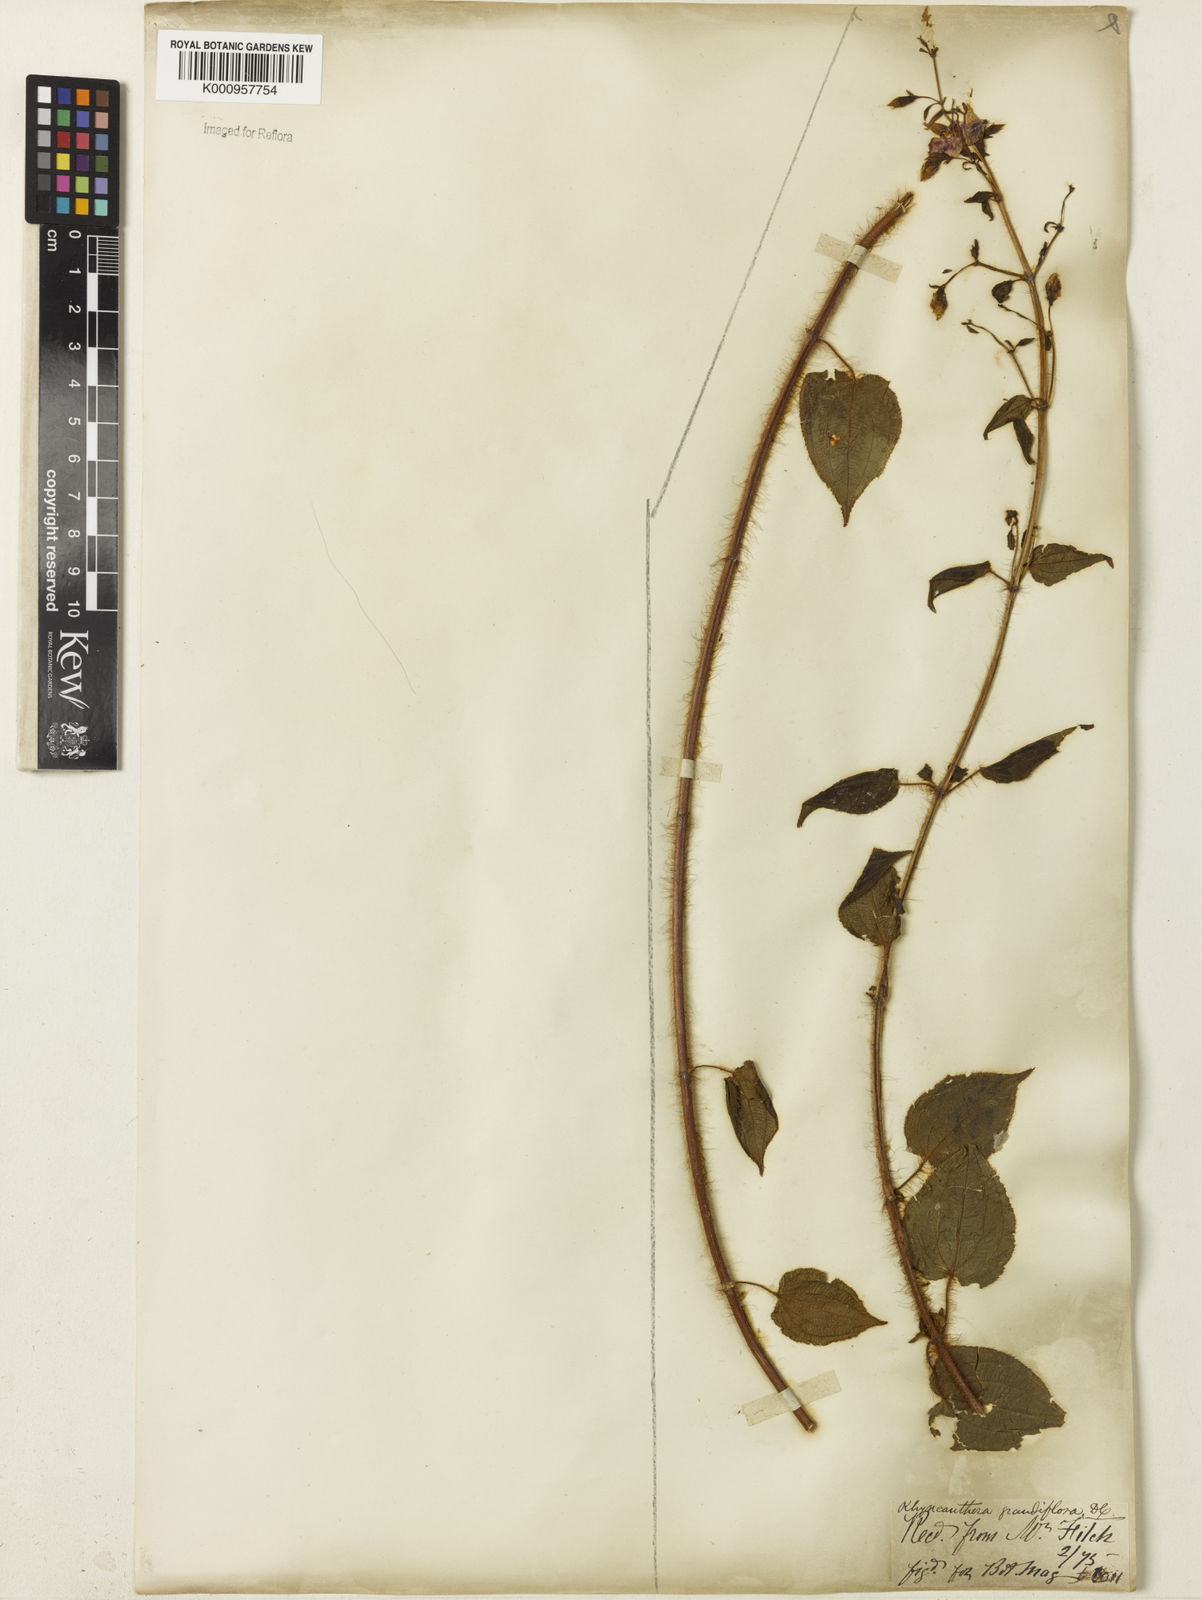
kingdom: Plantae
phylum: Tracheophyta
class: Magnoliopsida
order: Myrtales
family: Melastomataceae
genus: Rhynchanthera
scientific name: Rhynchanthera grandiflora
